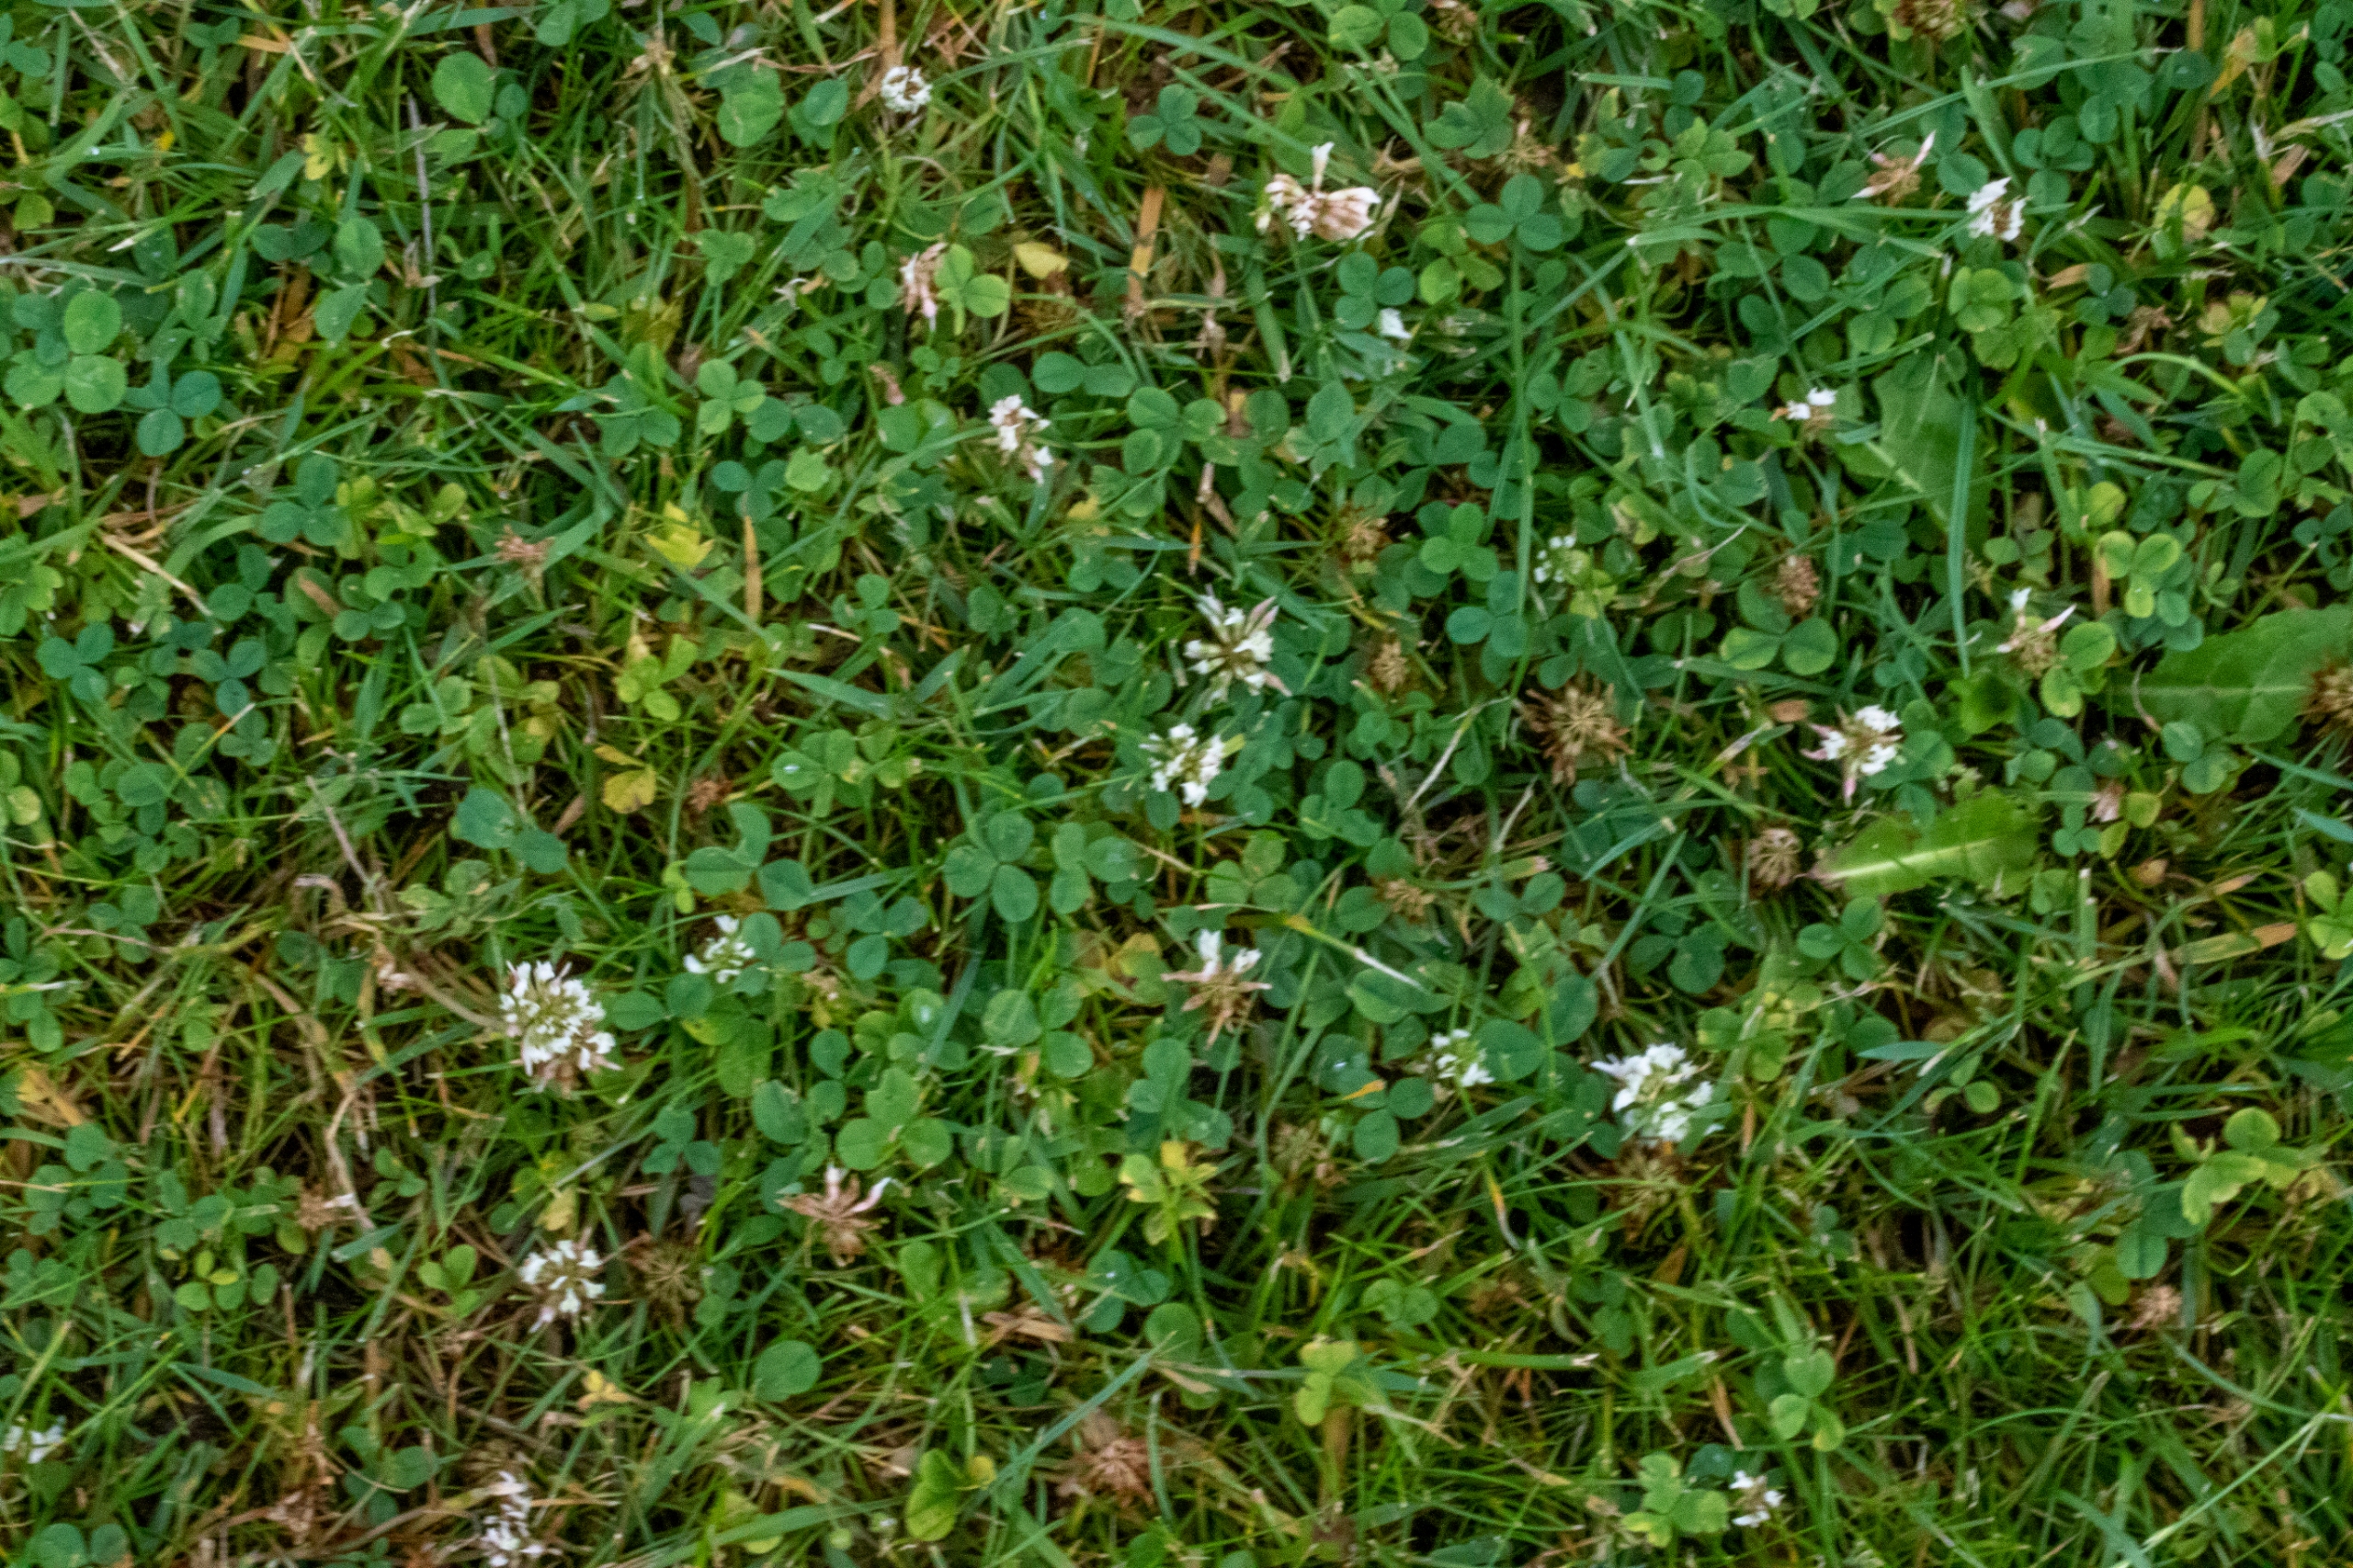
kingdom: Plantae
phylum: Tracheophyta
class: Magnoliopsida
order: Fabales
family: Fabaceae
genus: Trifolium
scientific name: Trifolium repens
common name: Hvid-kløver
